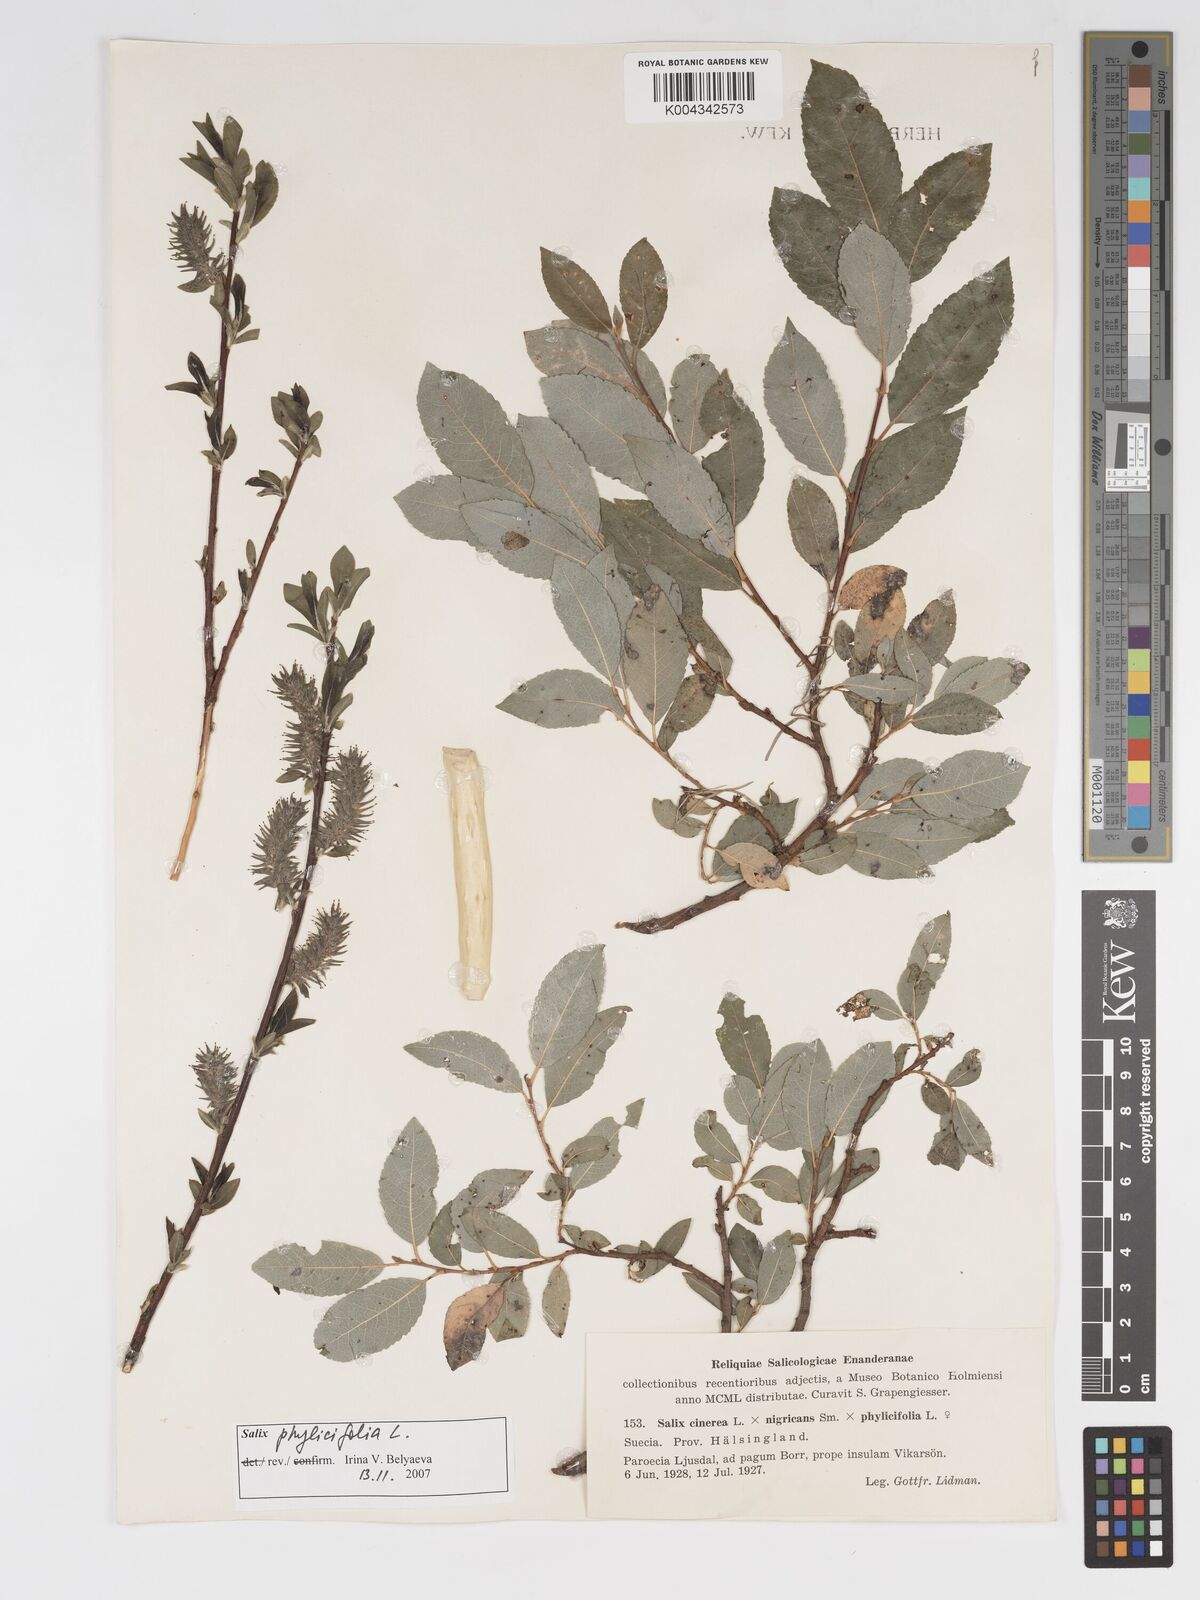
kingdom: Plantae
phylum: Tracheophyta
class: Magnoliopsida
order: Malpighiales
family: Salicaceae
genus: Salix
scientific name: Salix cinerea
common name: Common sallow
